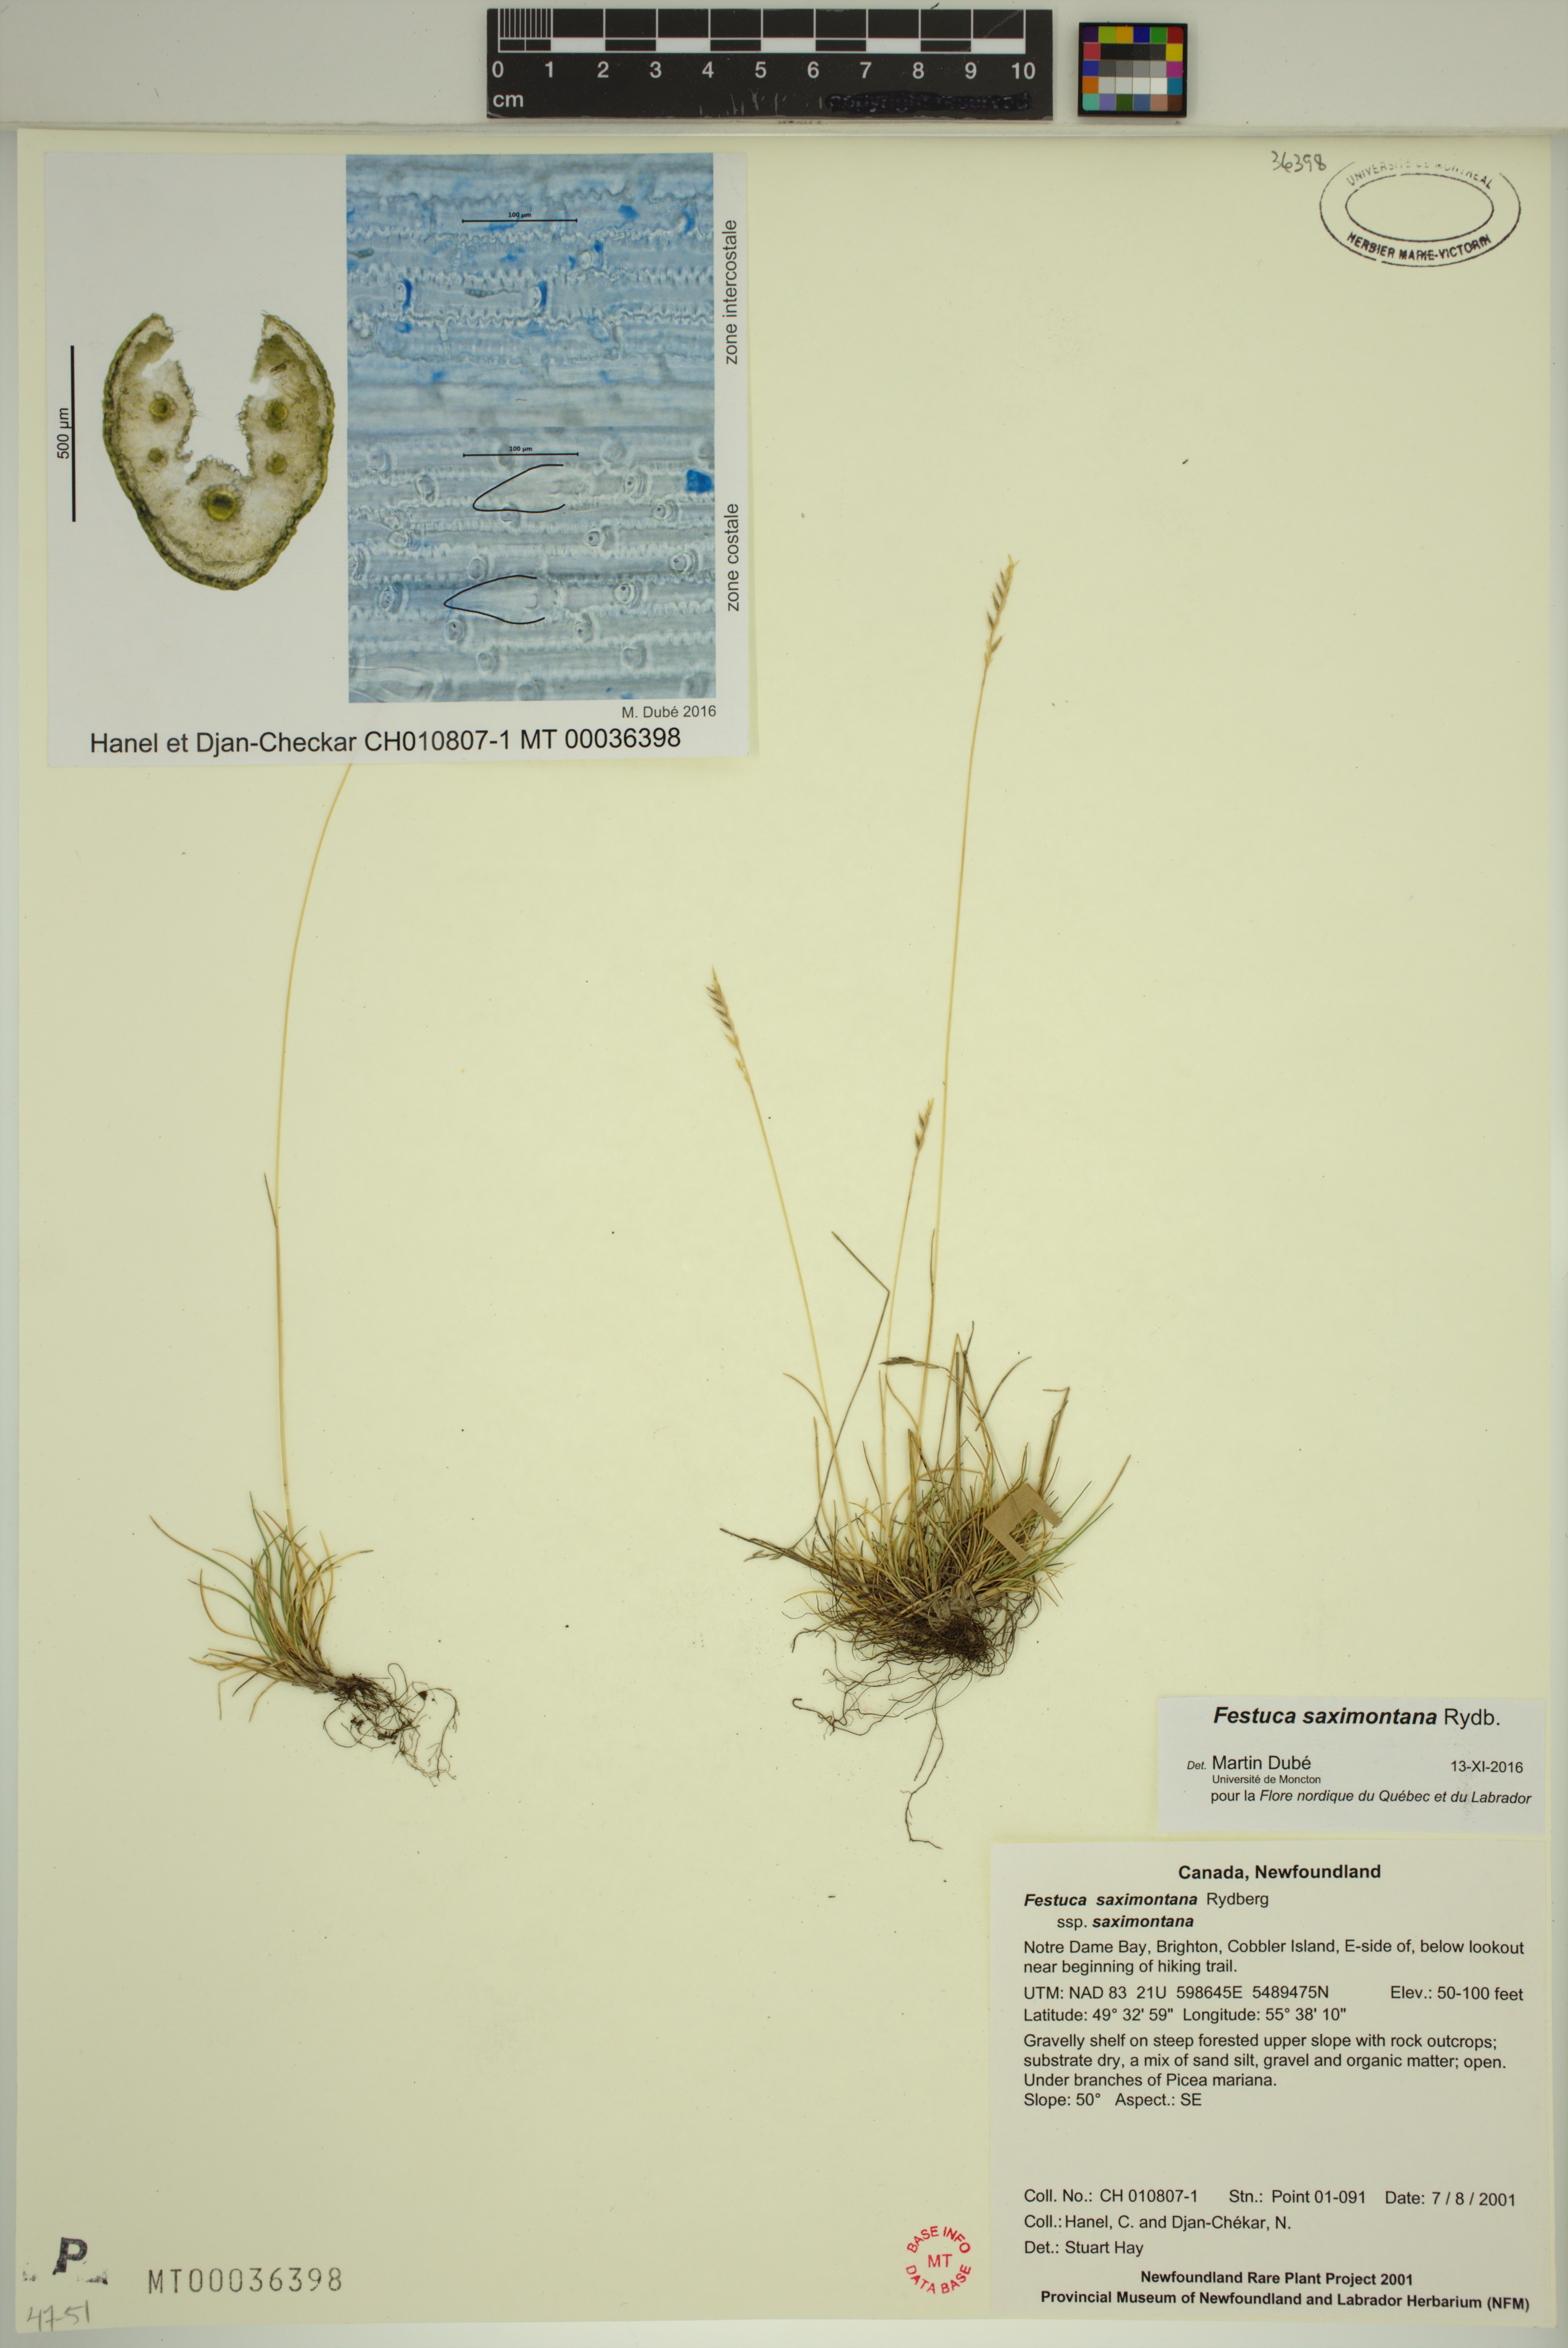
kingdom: Plantae
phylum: Tracheophyta
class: Liliopsida
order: Poales
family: Poaceae
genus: Festuca
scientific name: Festuca saximontana
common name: Mountain fescue
